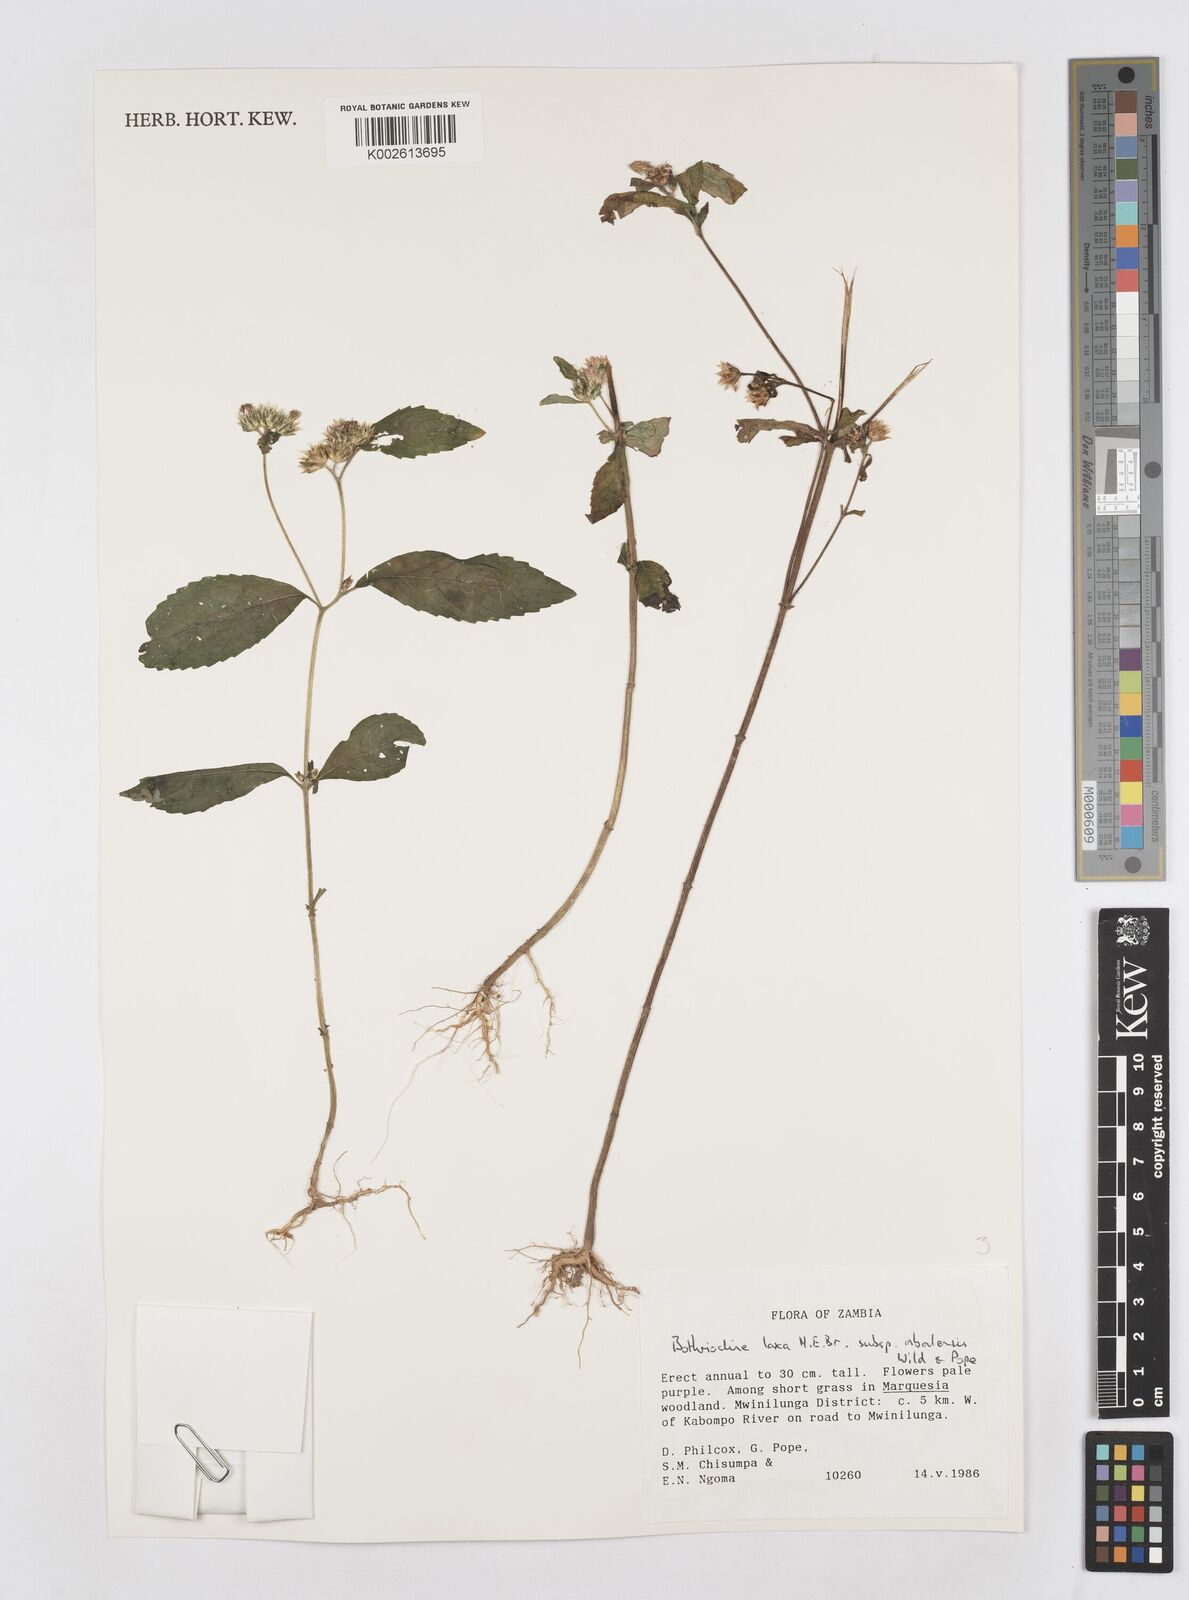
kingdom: Plantae
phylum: Tracheophyta
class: Magnoliopsida
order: Asterales
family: Asteraceae
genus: Bothriocline
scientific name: Bothriocline laxa
